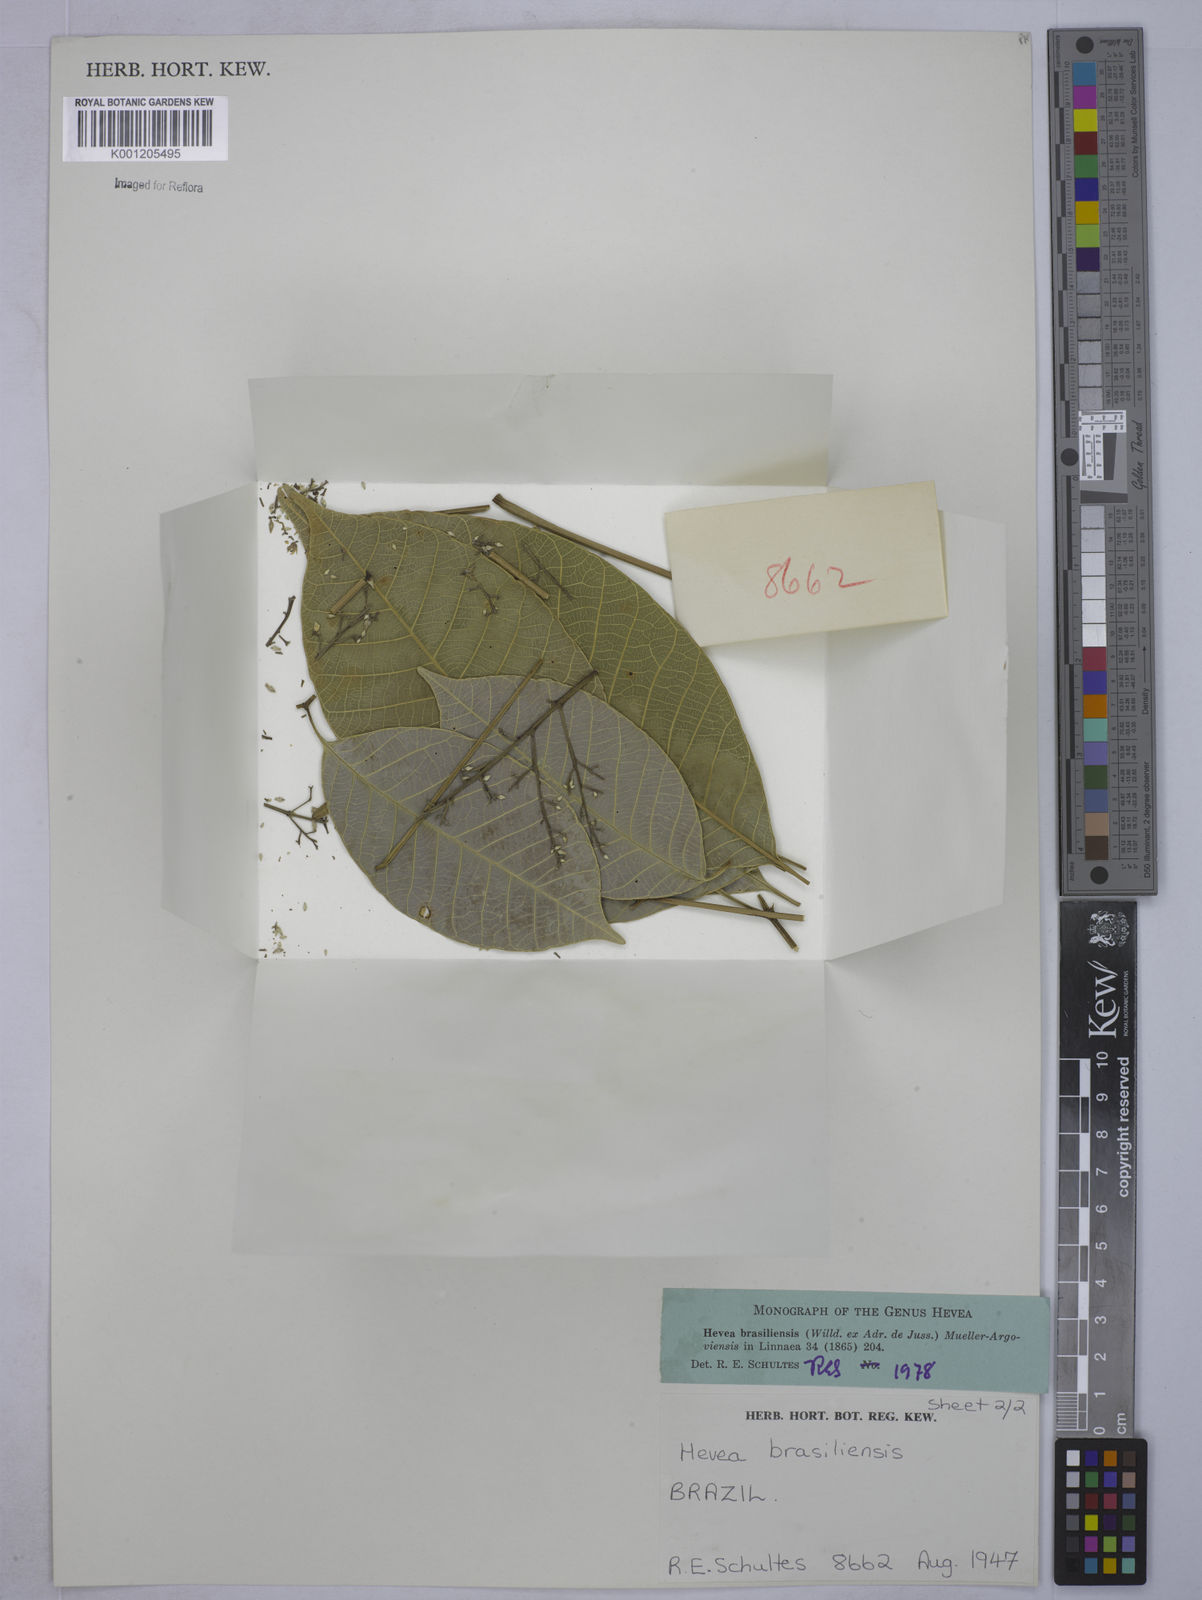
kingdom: Plantae
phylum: Tracheophyta
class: Magnoliopsida
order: Malpighiales
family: Euphorbiaceae
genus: Hevea
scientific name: Hevea
